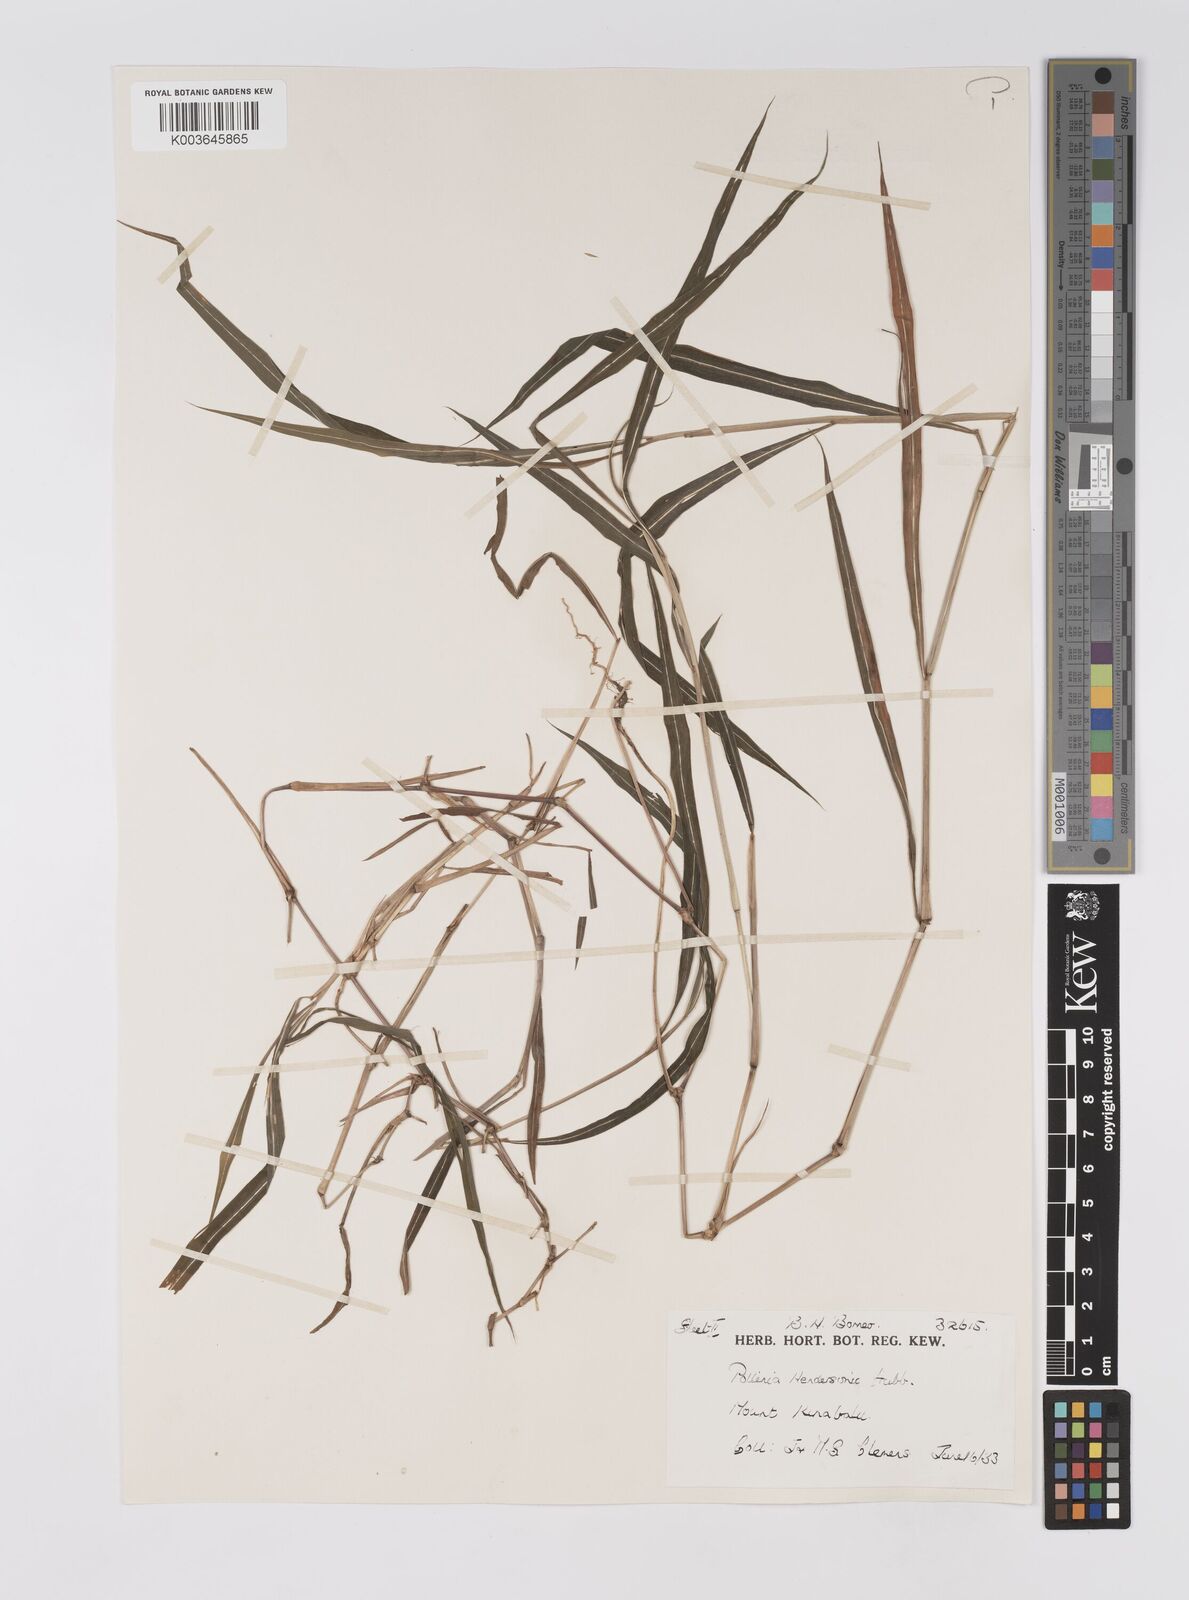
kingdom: Plantae
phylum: Tracheophyta
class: Liliopsida
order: Poales
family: Poaceae
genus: Microstegium
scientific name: Microstegium geniculatum
